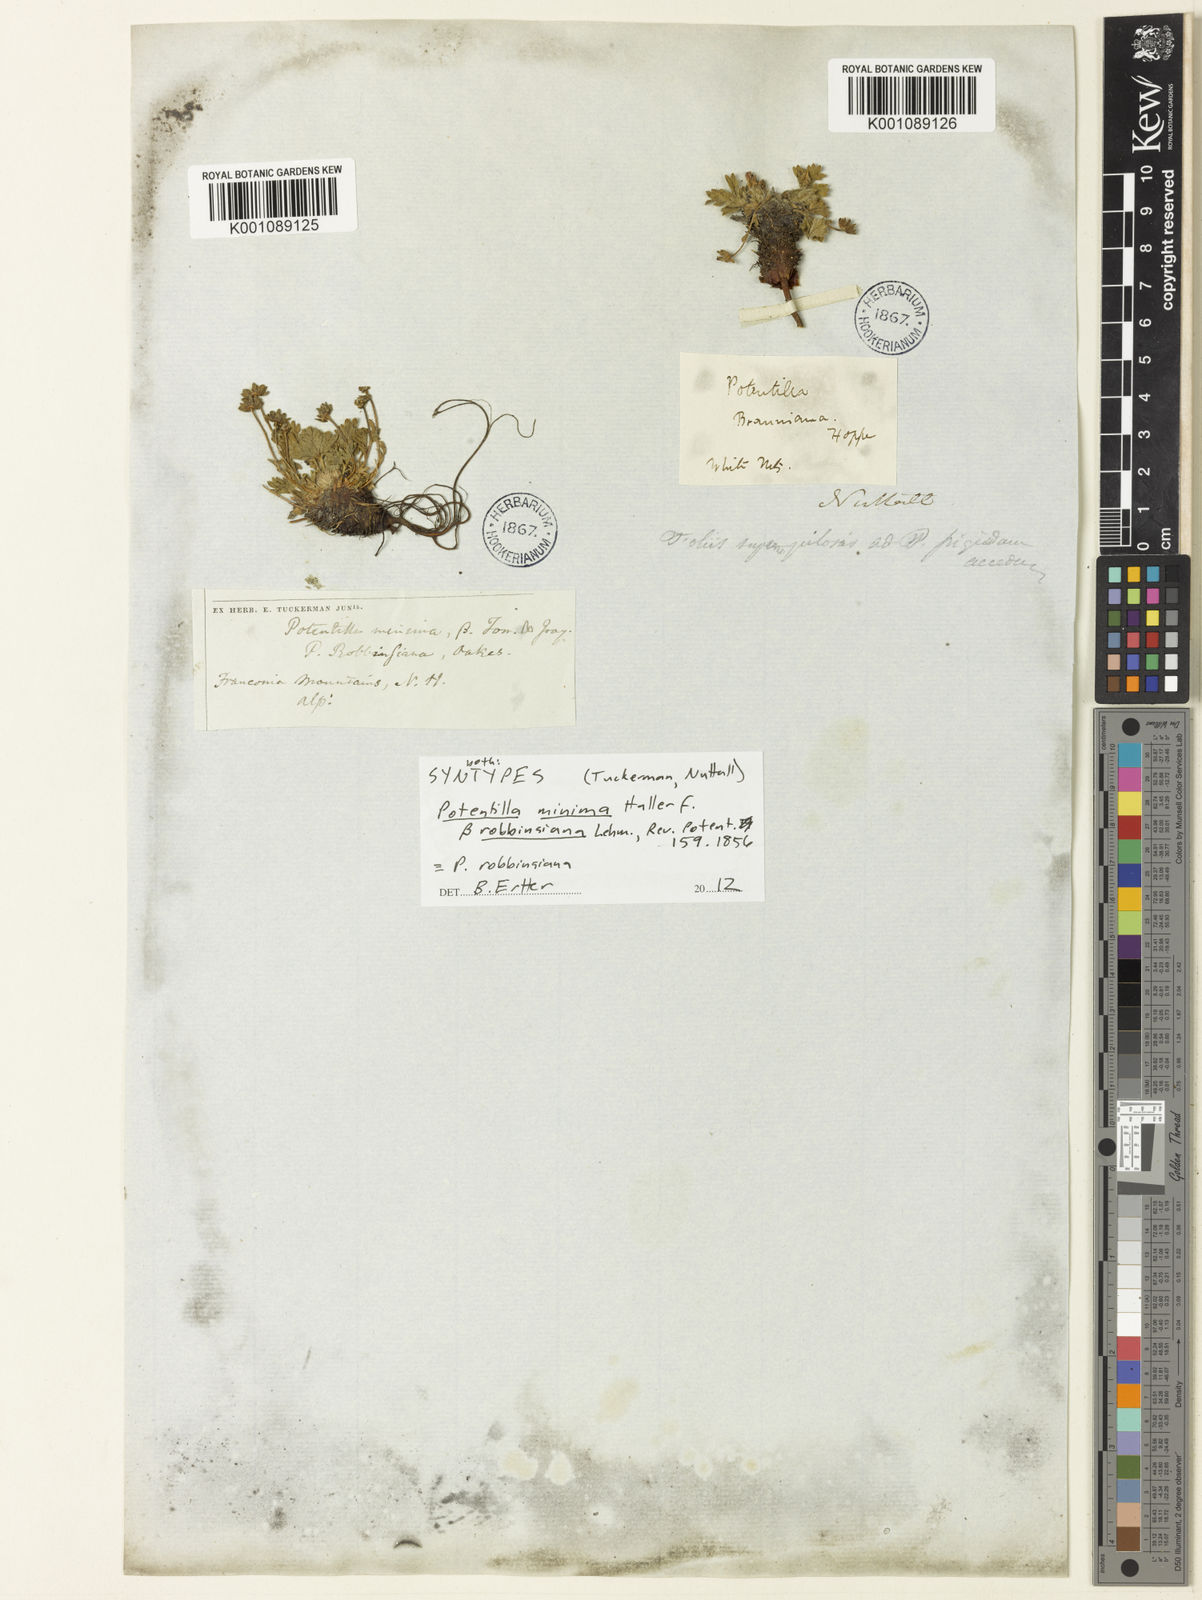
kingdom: Plantae
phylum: Tracheophyta
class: Magnoliopsida
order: Rosales
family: Rosaceae
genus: Potentilla
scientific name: Potentilla
